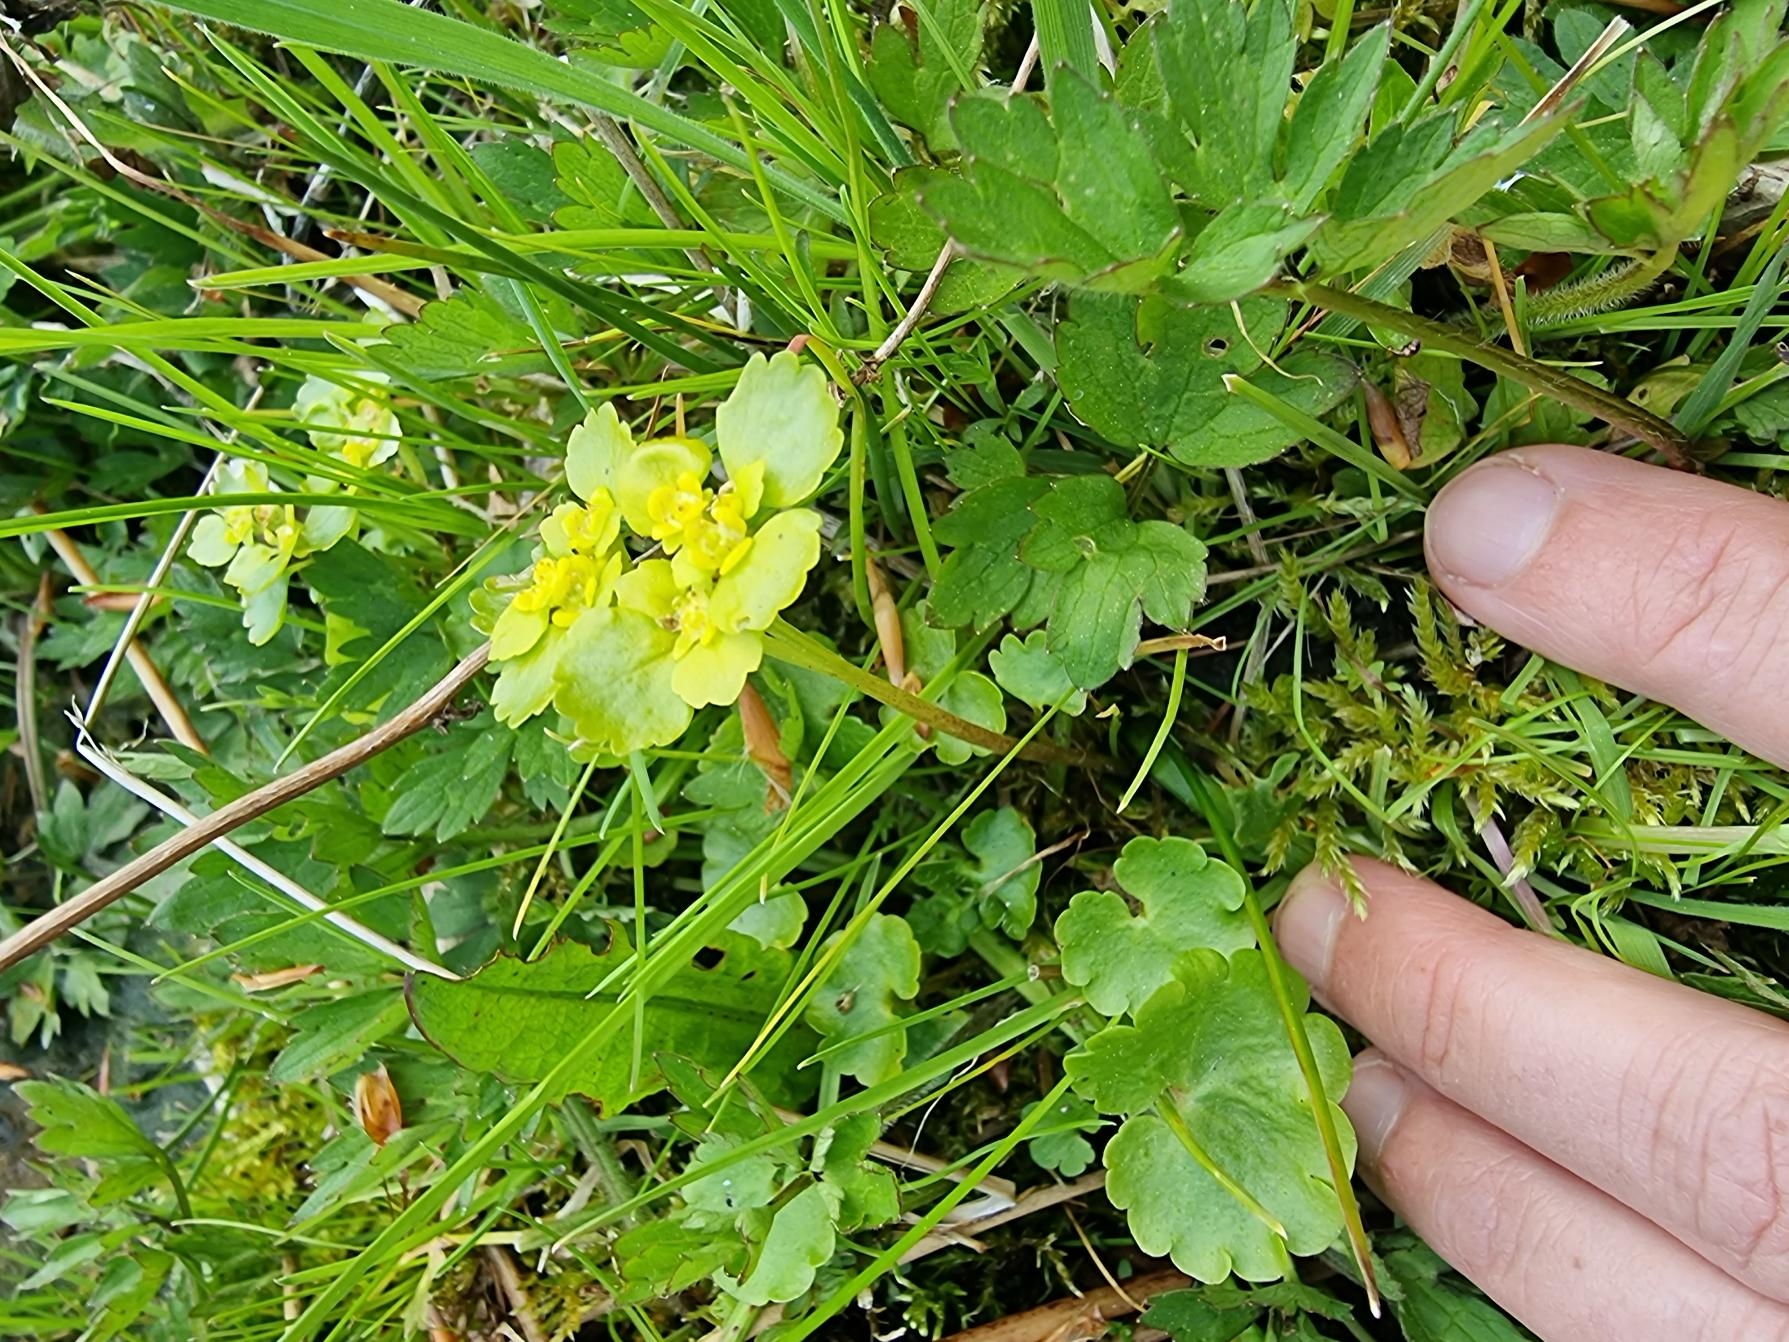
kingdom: Plantae
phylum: Tracheophyta
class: Magnoliopsida
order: Saxifragales
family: Saxifragaceae
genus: Chrysosplenium
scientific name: Chrysosplenium alternifolium
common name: Almindelig milturt
